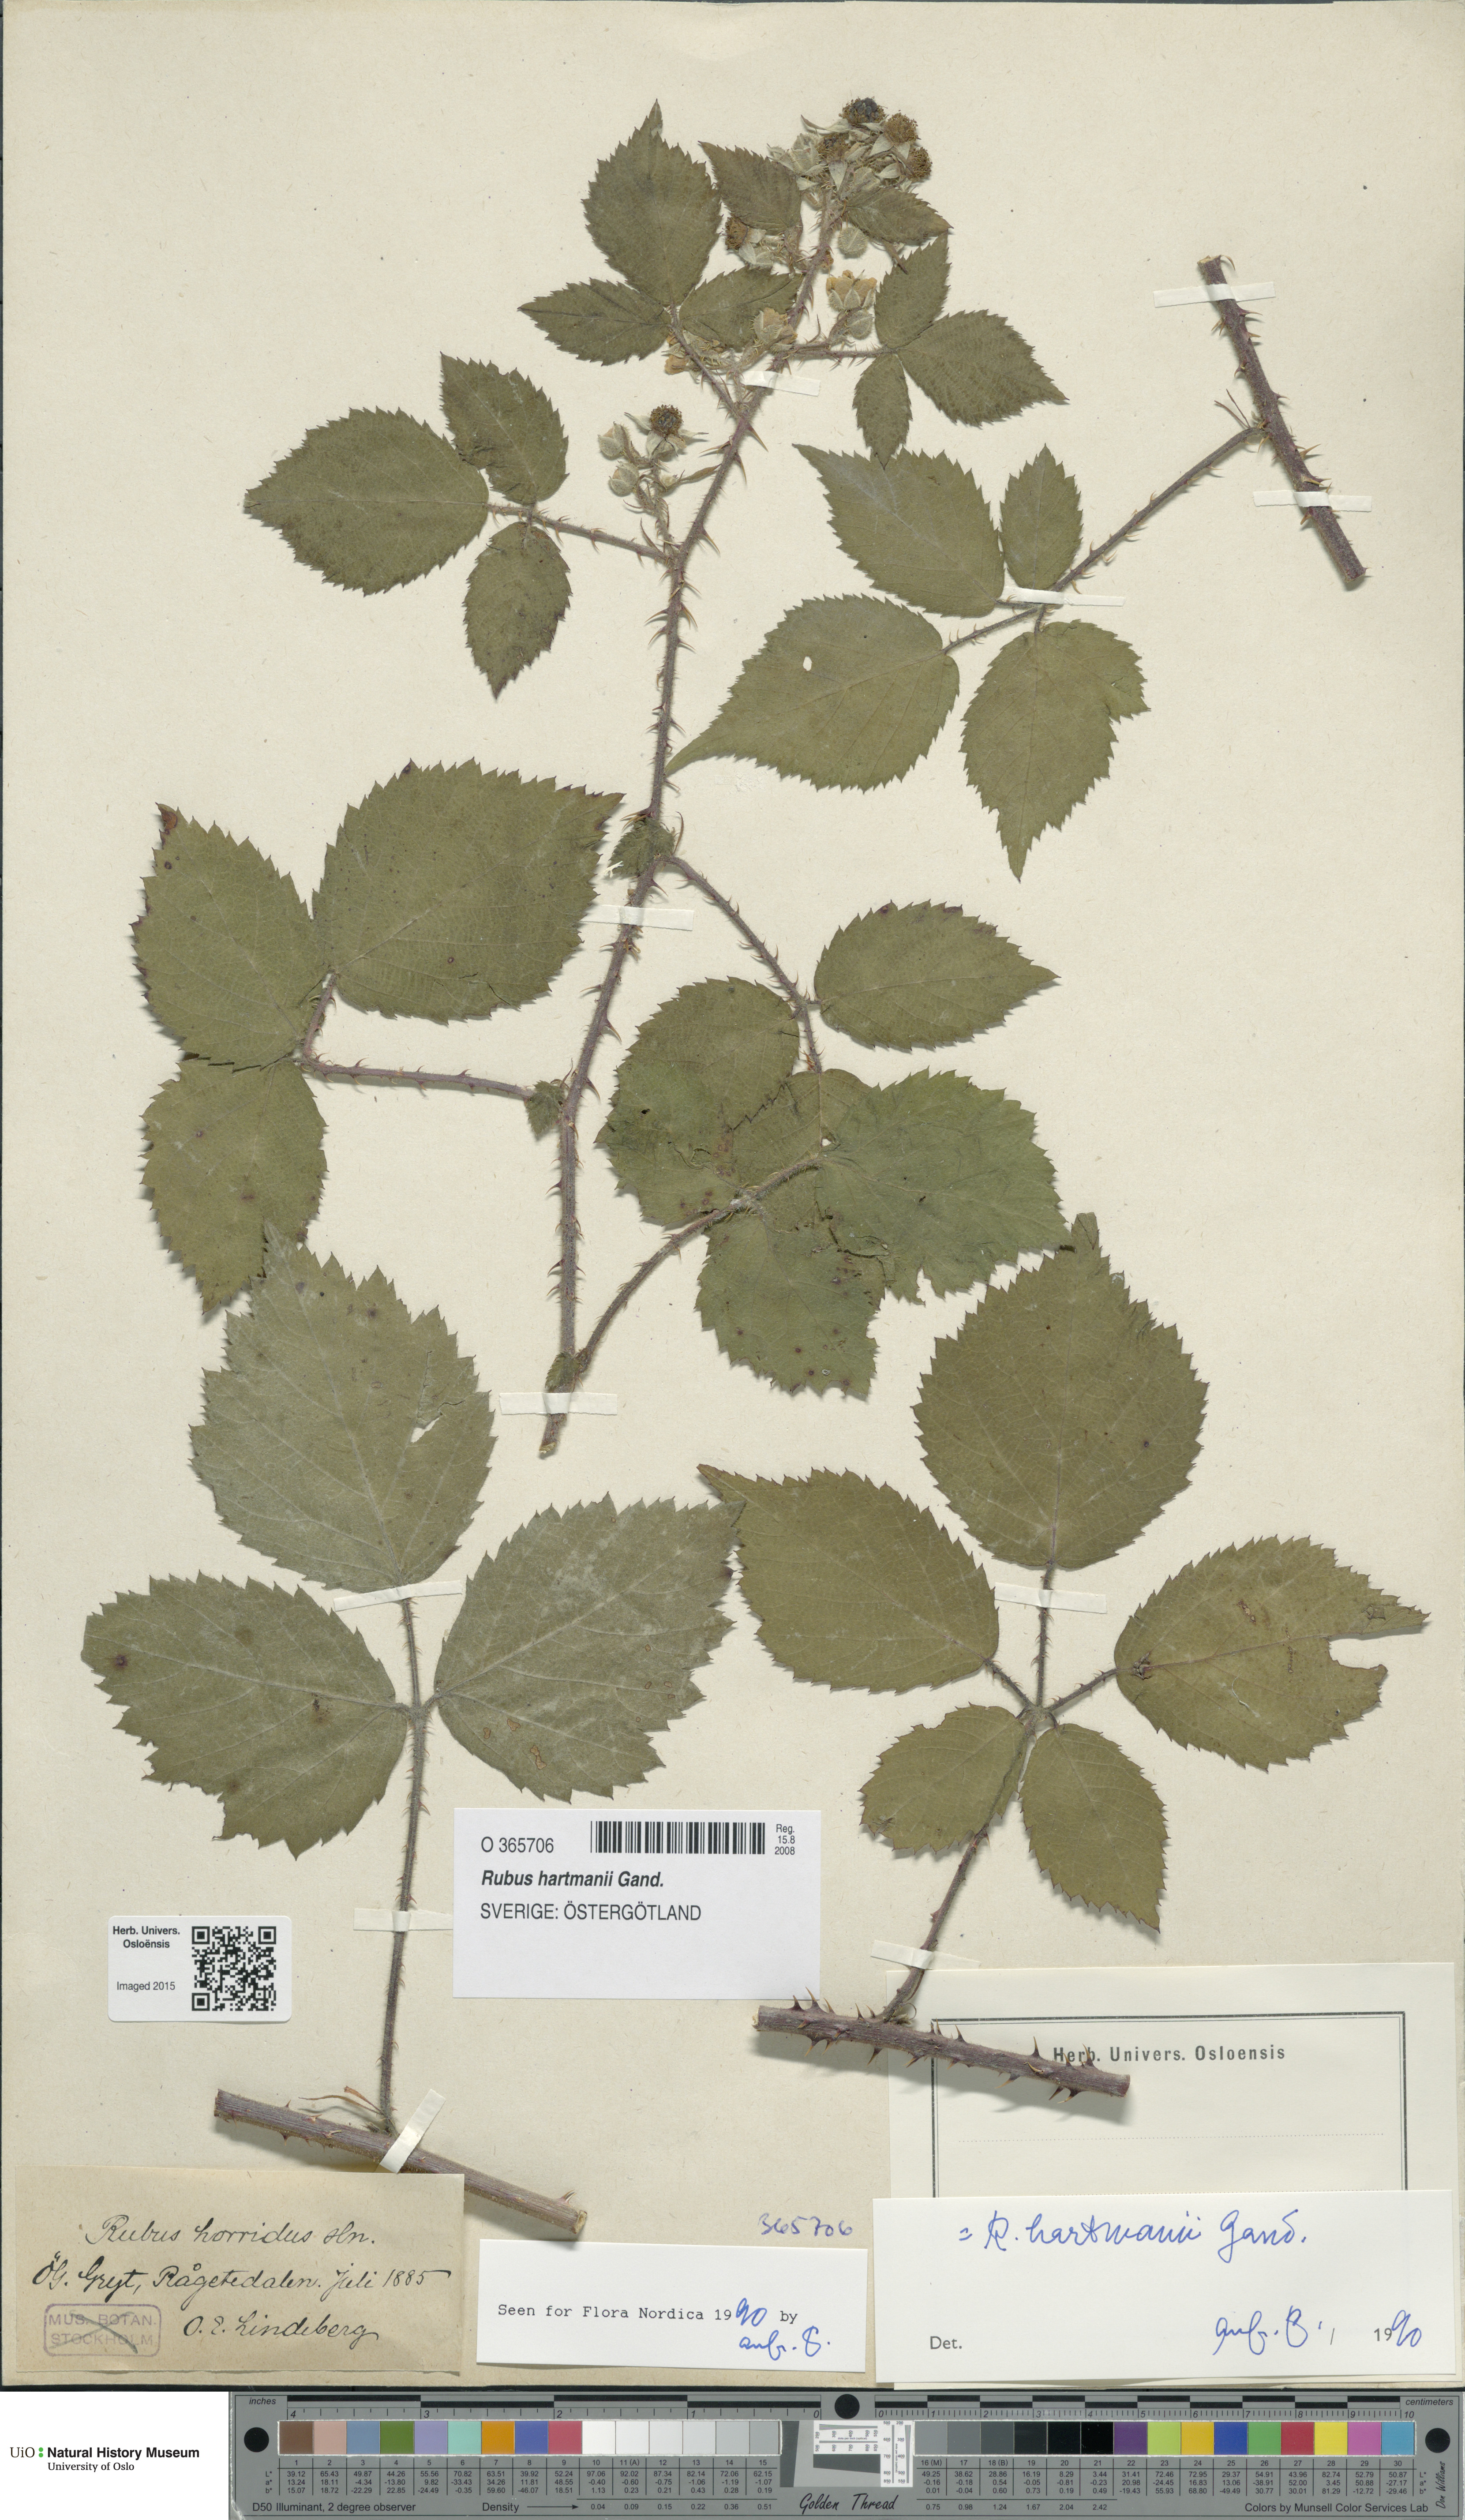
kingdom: Plantae
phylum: Tracheophyta
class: Magnoliopsida
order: Rosales
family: Rosaceae
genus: Rubus
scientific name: Rubus hartmanii
